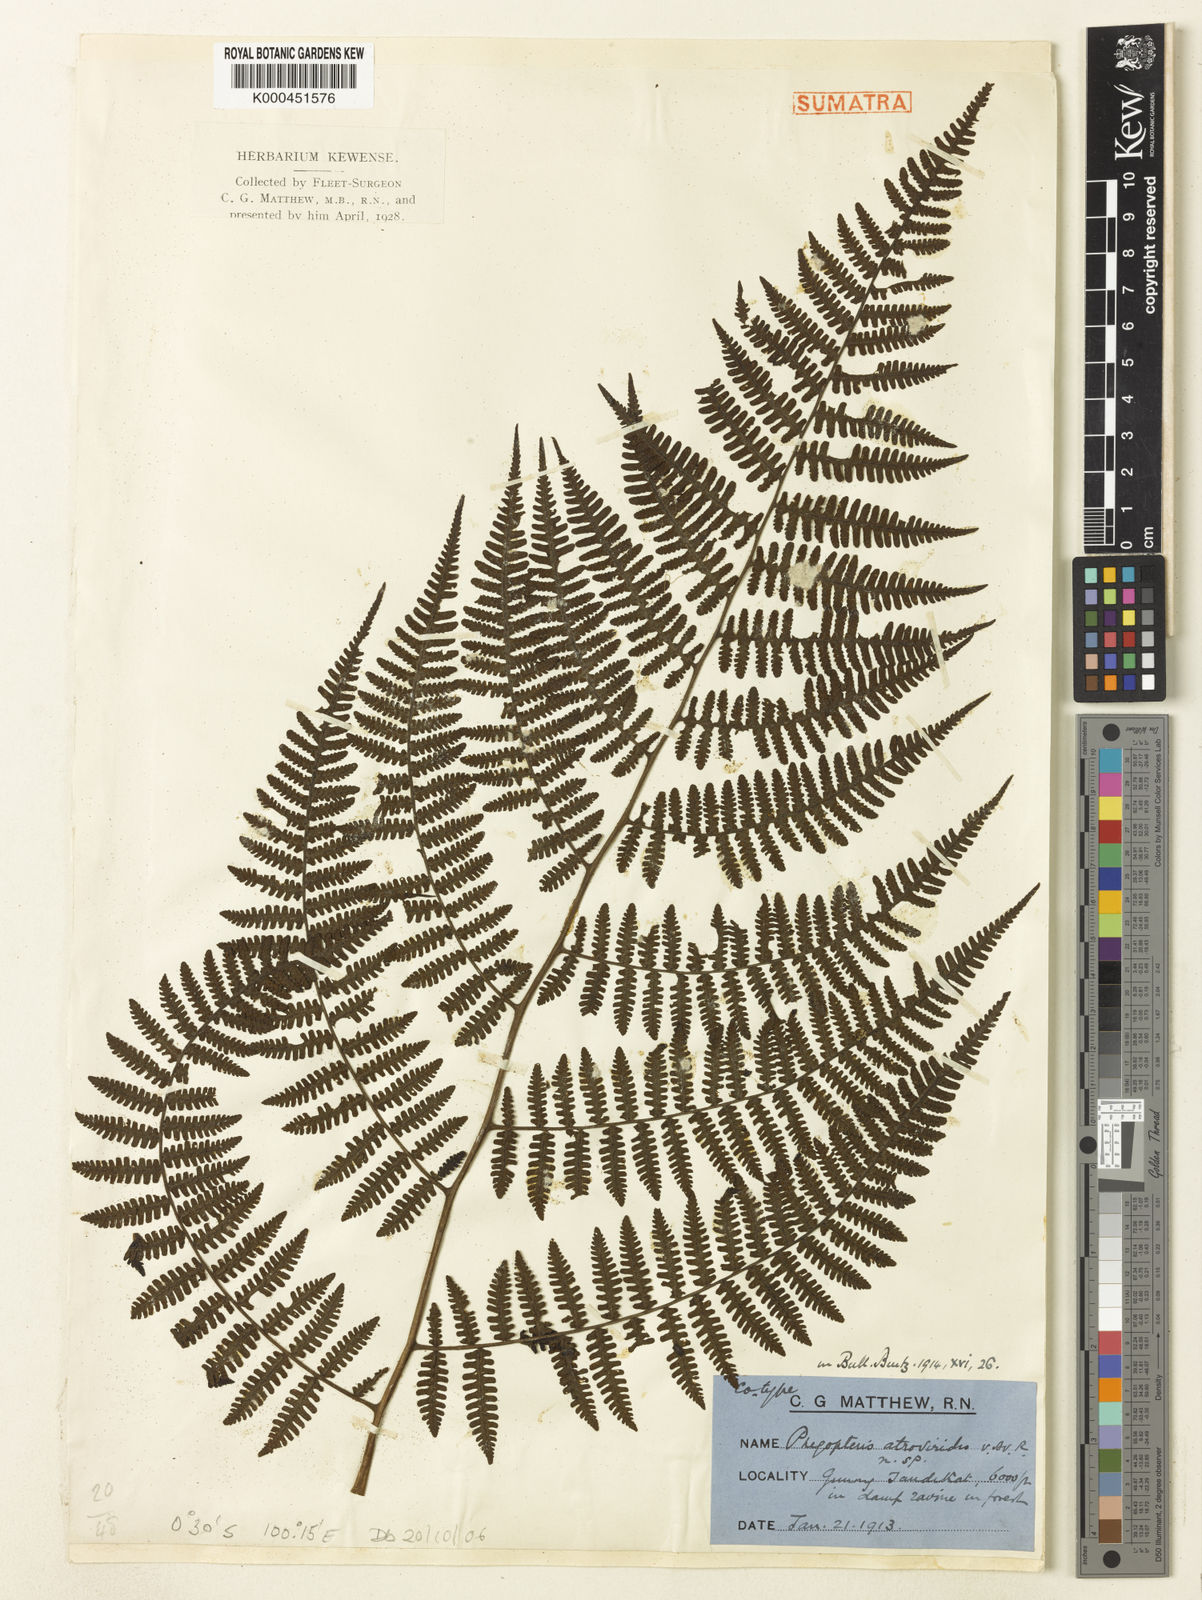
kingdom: Plantae
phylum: Tracheophyta
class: Polypodiopsida
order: Polypodiales
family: Athyriaceae
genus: Cornopteris
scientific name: Cornopteris atroviridis
